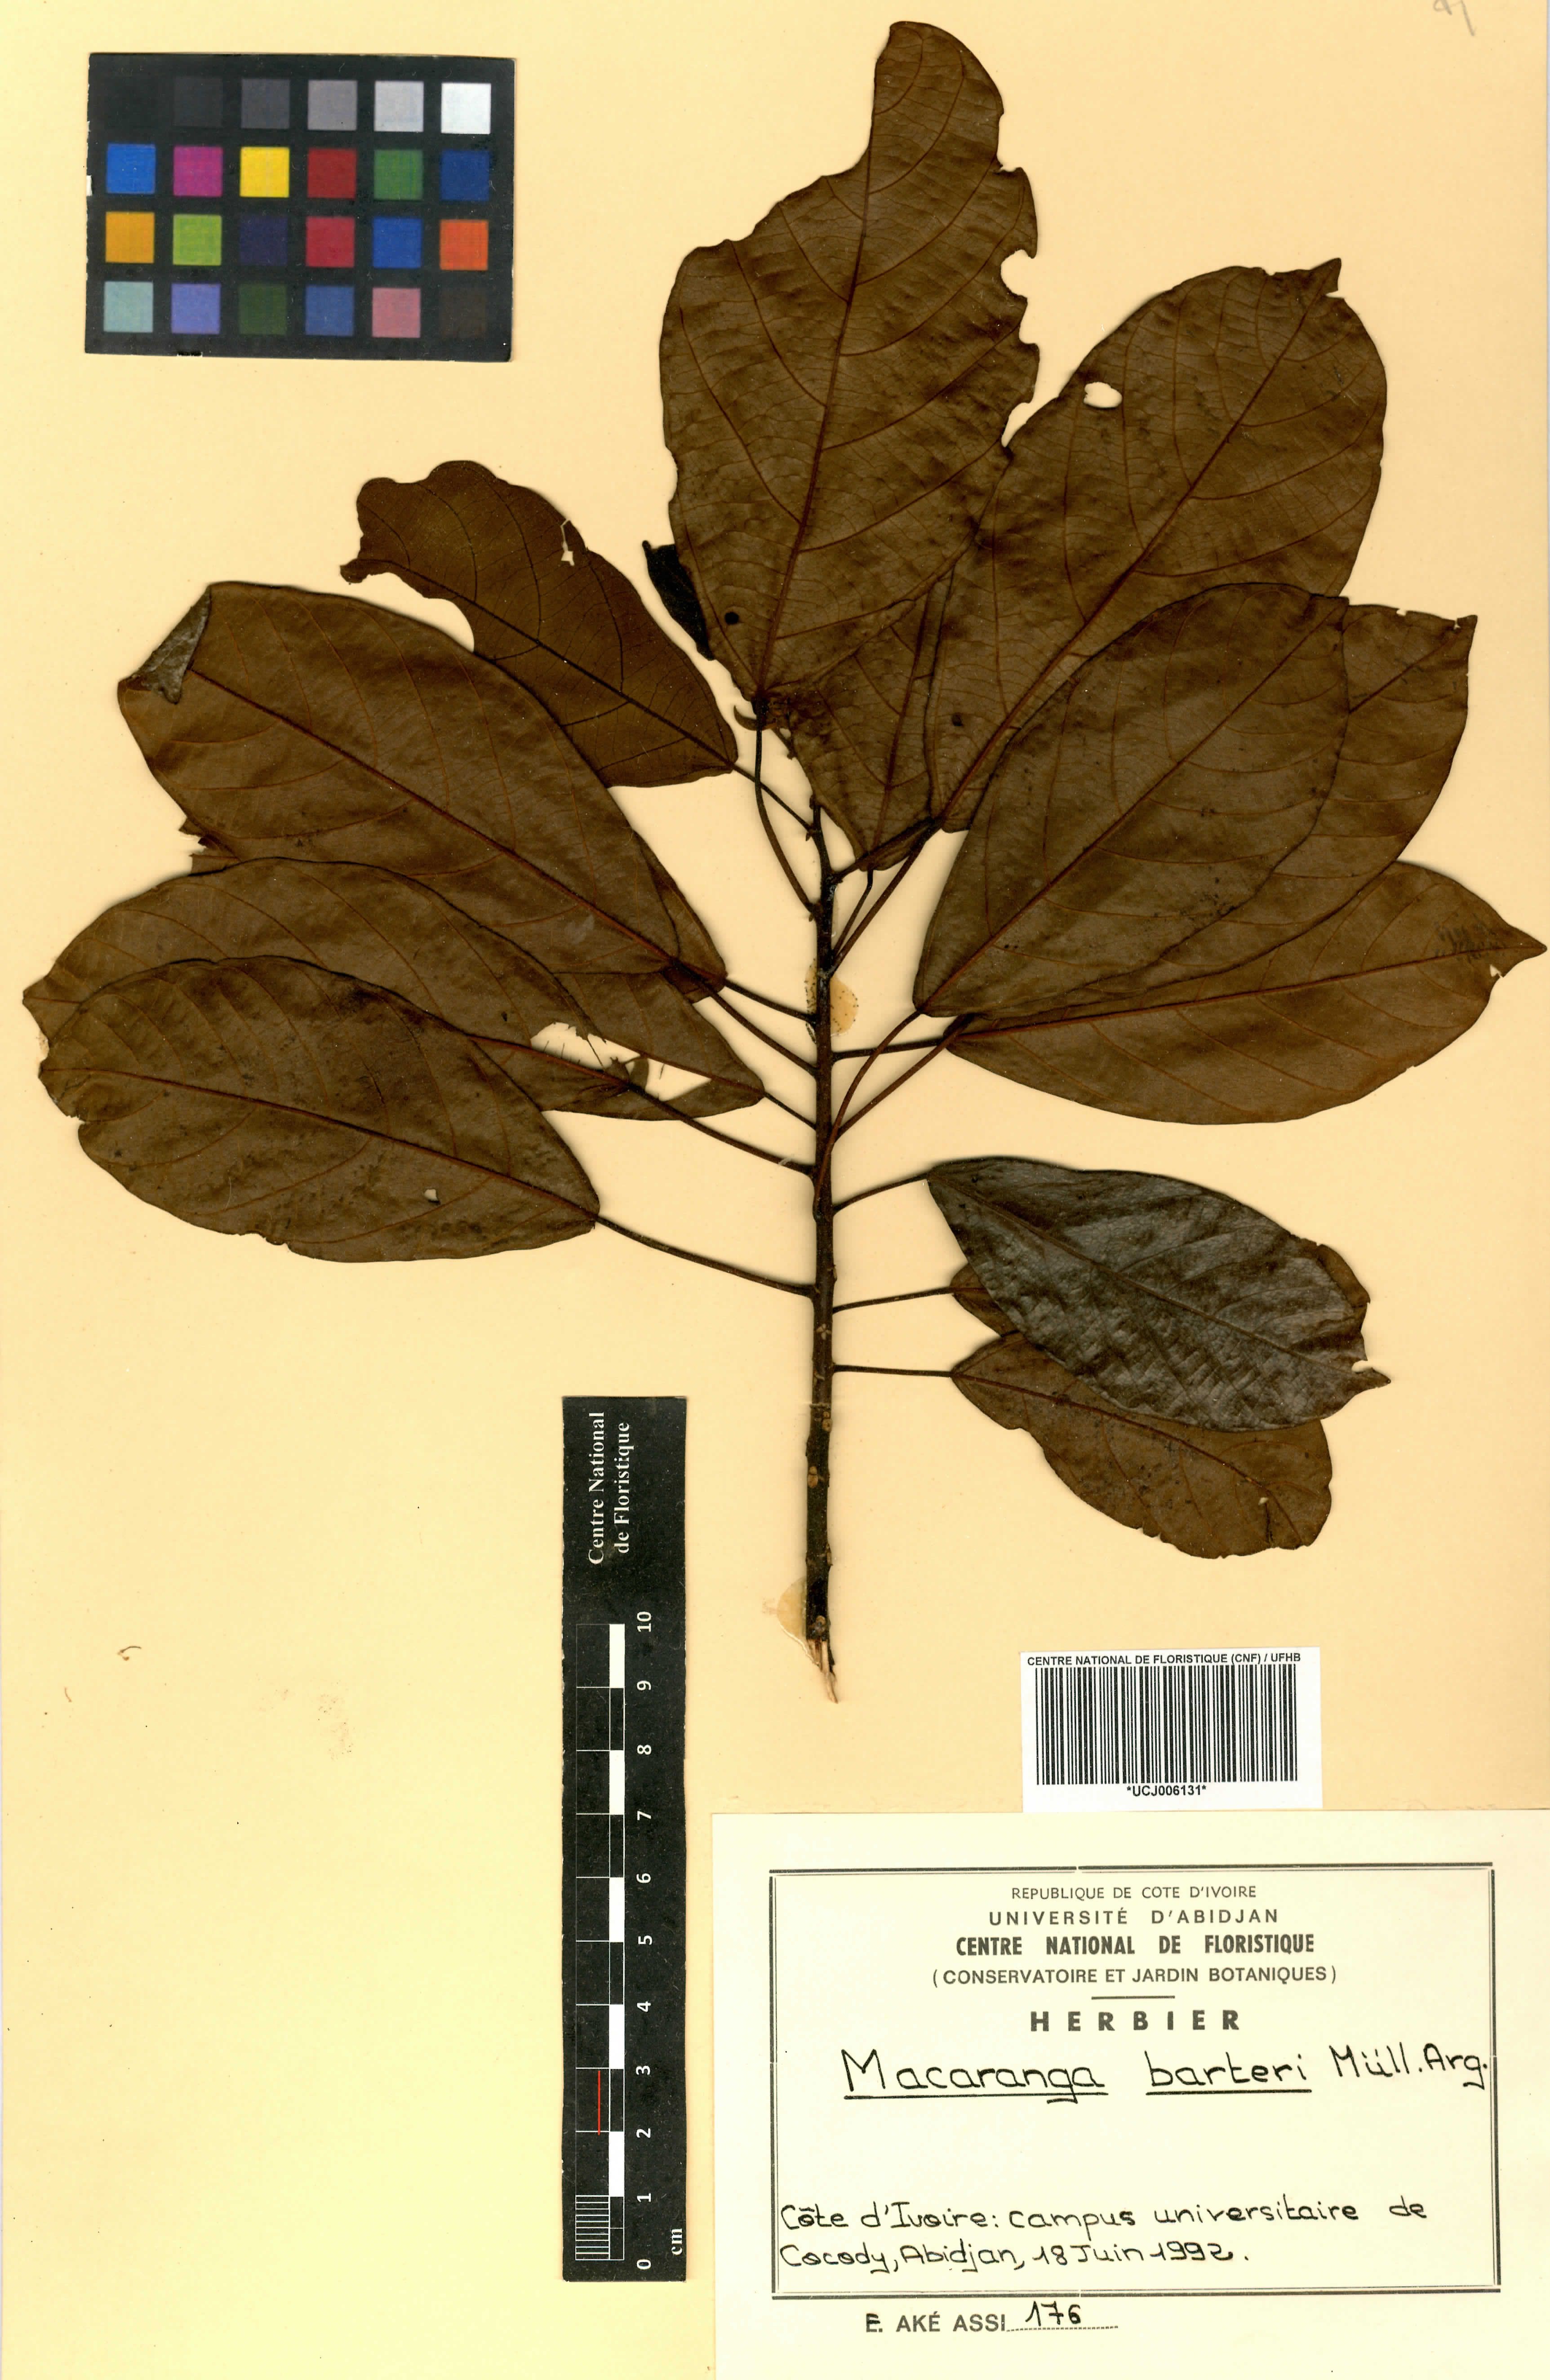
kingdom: Plantae
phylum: Tracheophyta
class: Magnoliopsida
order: Malpighiales
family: Euphorbiaceae
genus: Macaranga
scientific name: Macaranga barteri
